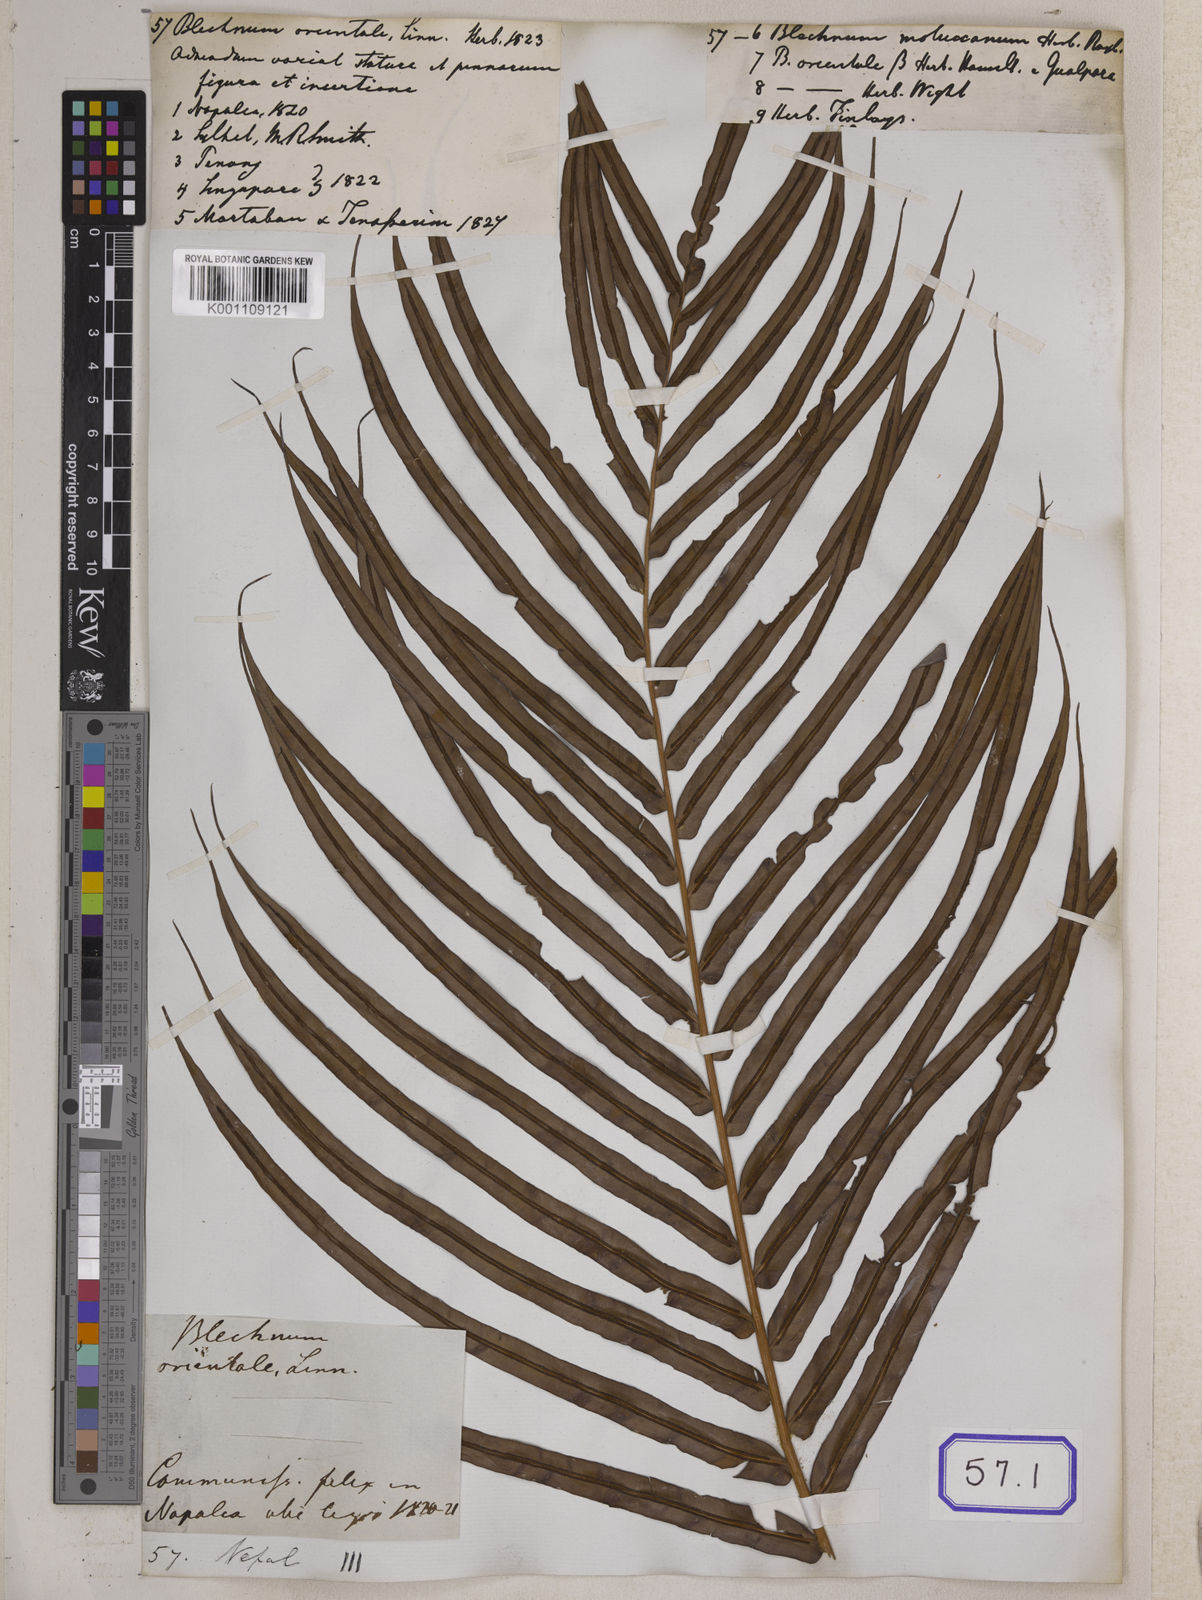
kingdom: Plantae
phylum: Tracheophyta
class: Polypodiopsida
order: Polypodiales
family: Blechnaceae
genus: Blechnopsis
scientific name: Blechnopsis orientalis
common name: Oriental blechnum
